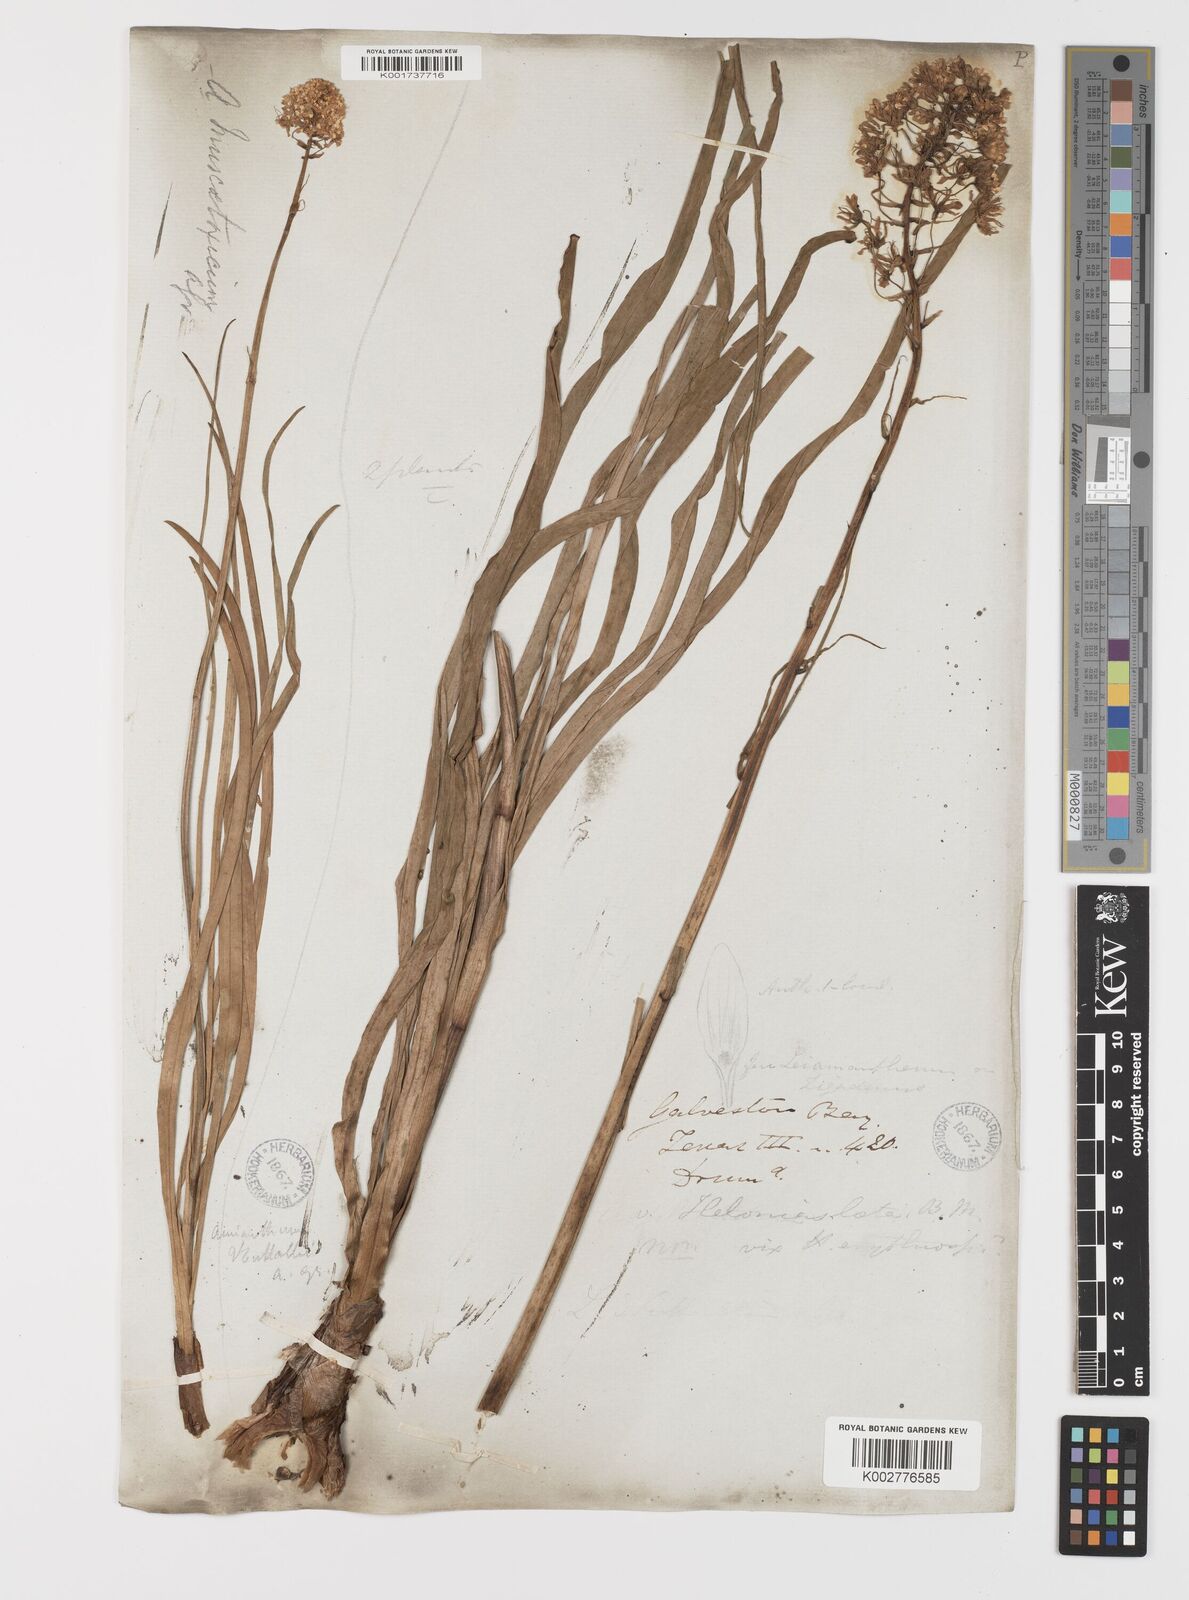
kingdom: Plantae
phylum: Tracheophyta
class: Liliopsida
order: Liliales
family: Melanthiaceae
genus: Toxicoscordion
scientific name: Toxicoscordion nuttallii
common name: Poison sego
